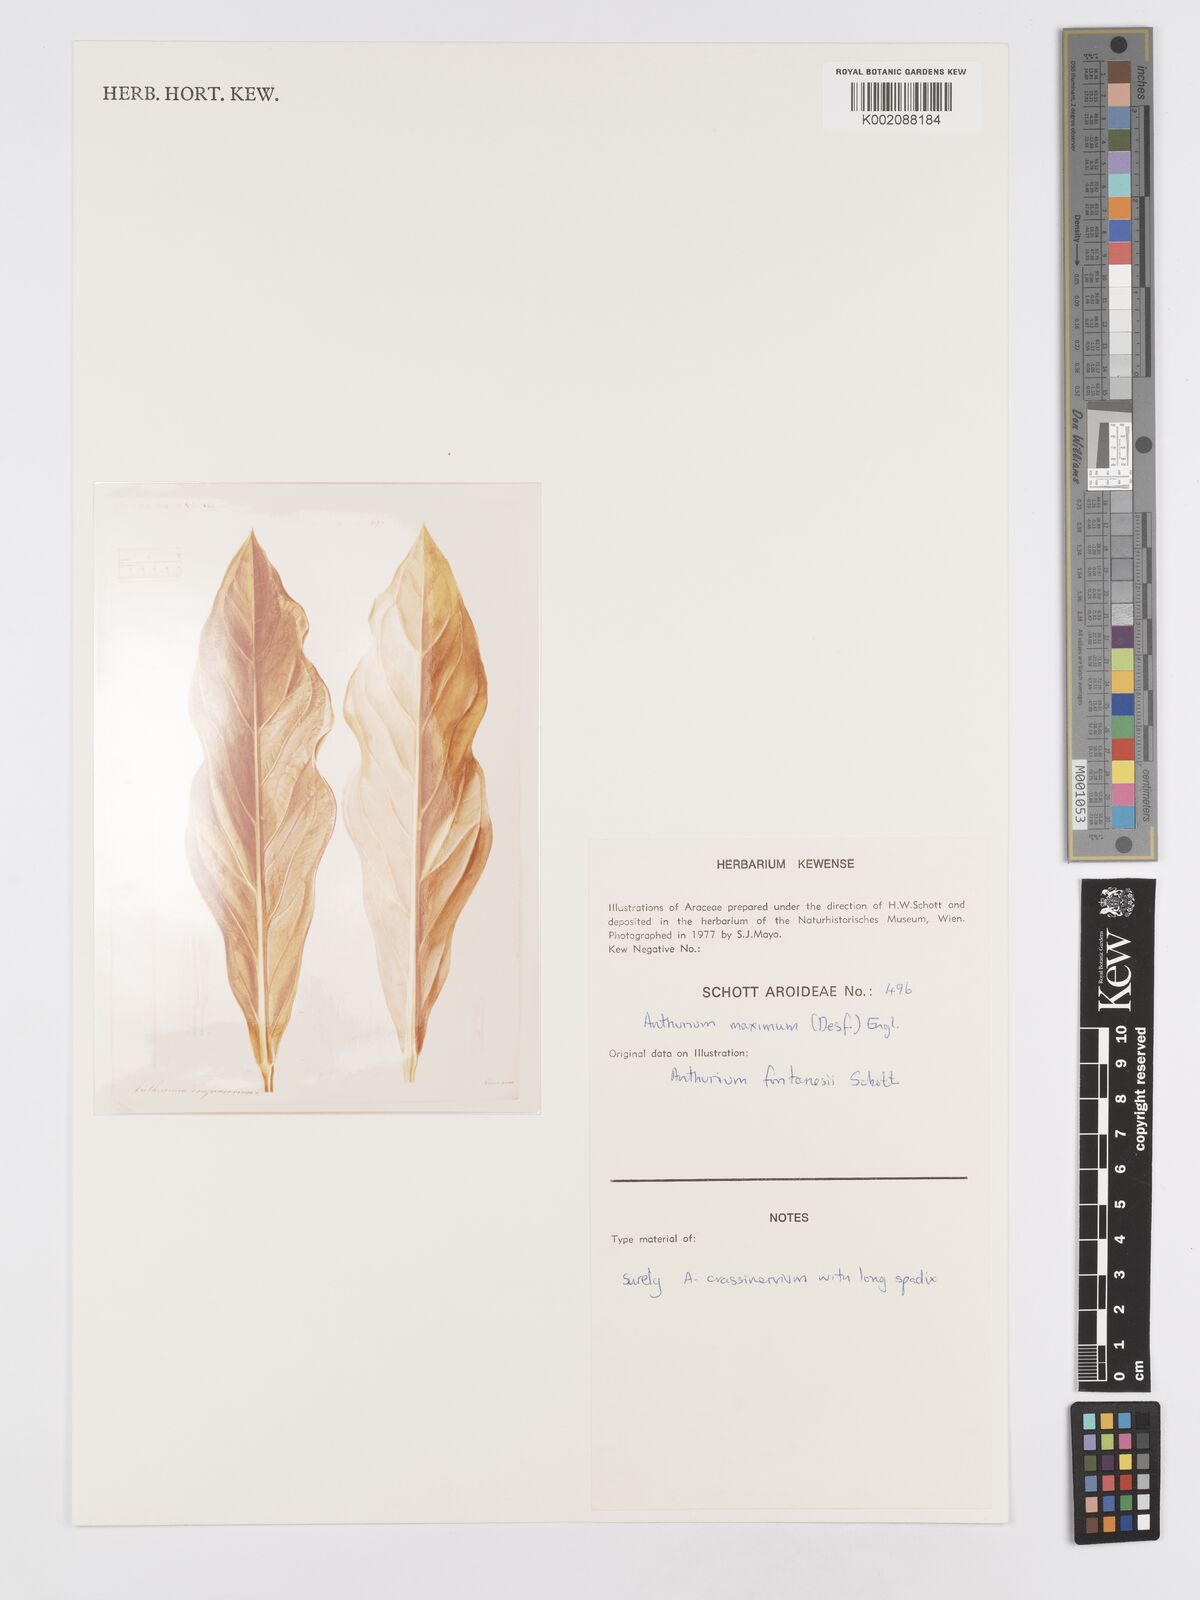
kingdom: Plantae
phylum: Tracheophyta
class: Liliopsida
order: Alismatales
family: Araceae
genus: Anthurium
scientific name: Anthurium maximum
